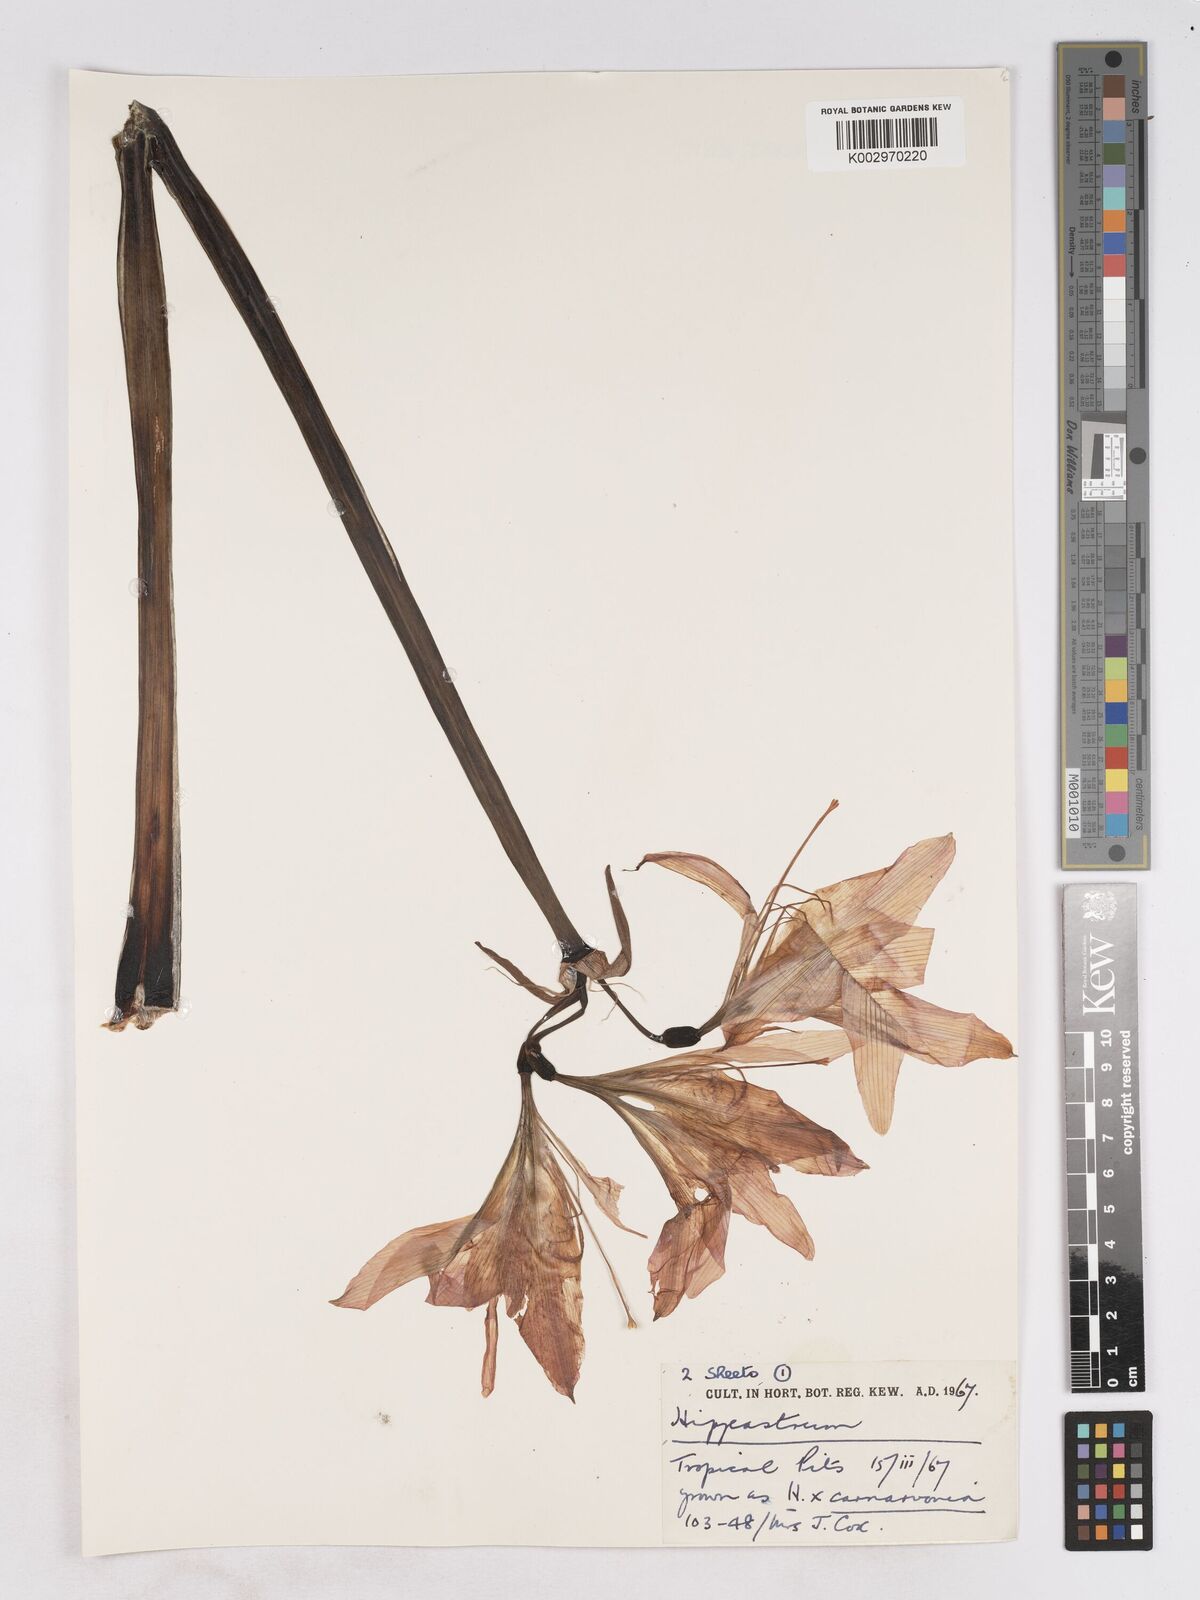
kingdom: Plantae
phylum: Tracheophyta
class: Liliopsida
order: Asparagales
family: Amaryllidaceae
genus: Hippeastrum
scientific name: Hippeastrum
